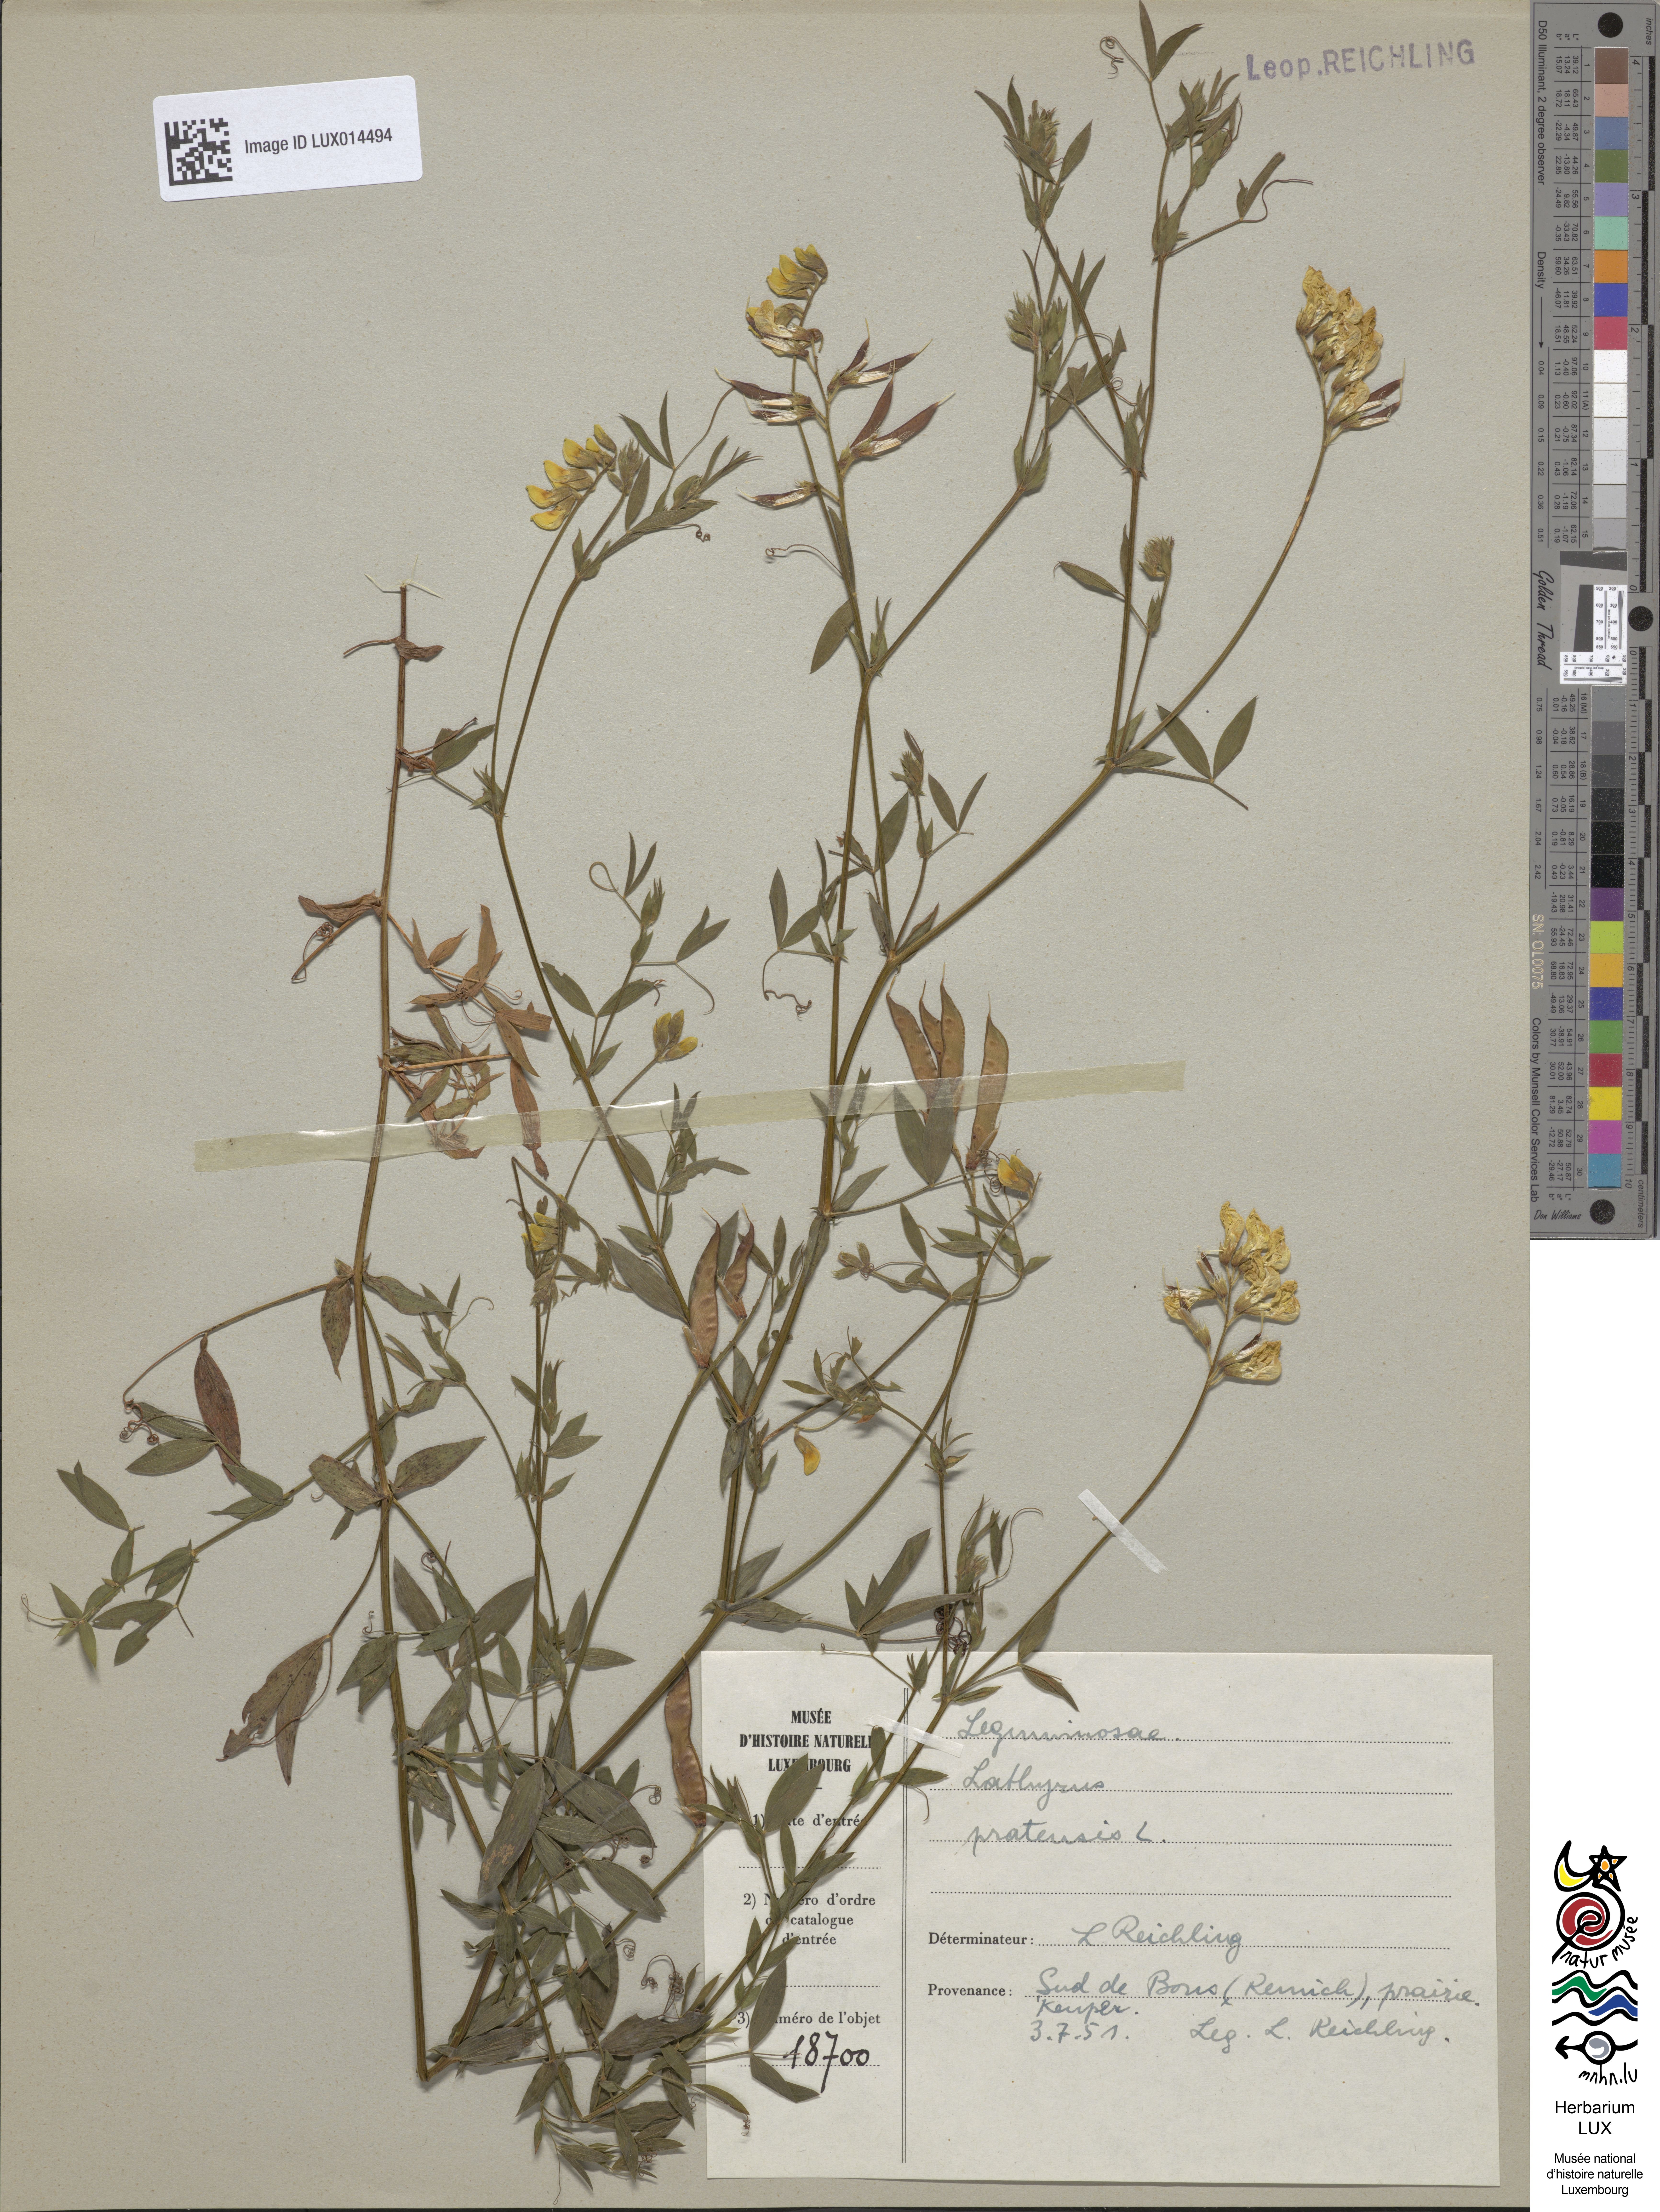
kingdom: Plantae
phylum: Tracheophyta
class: Magnoliopsida
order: Fabales
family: Fabaceae
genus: Lathyrus
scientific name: Lathyrus pratensis
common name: Meadow vetchling
